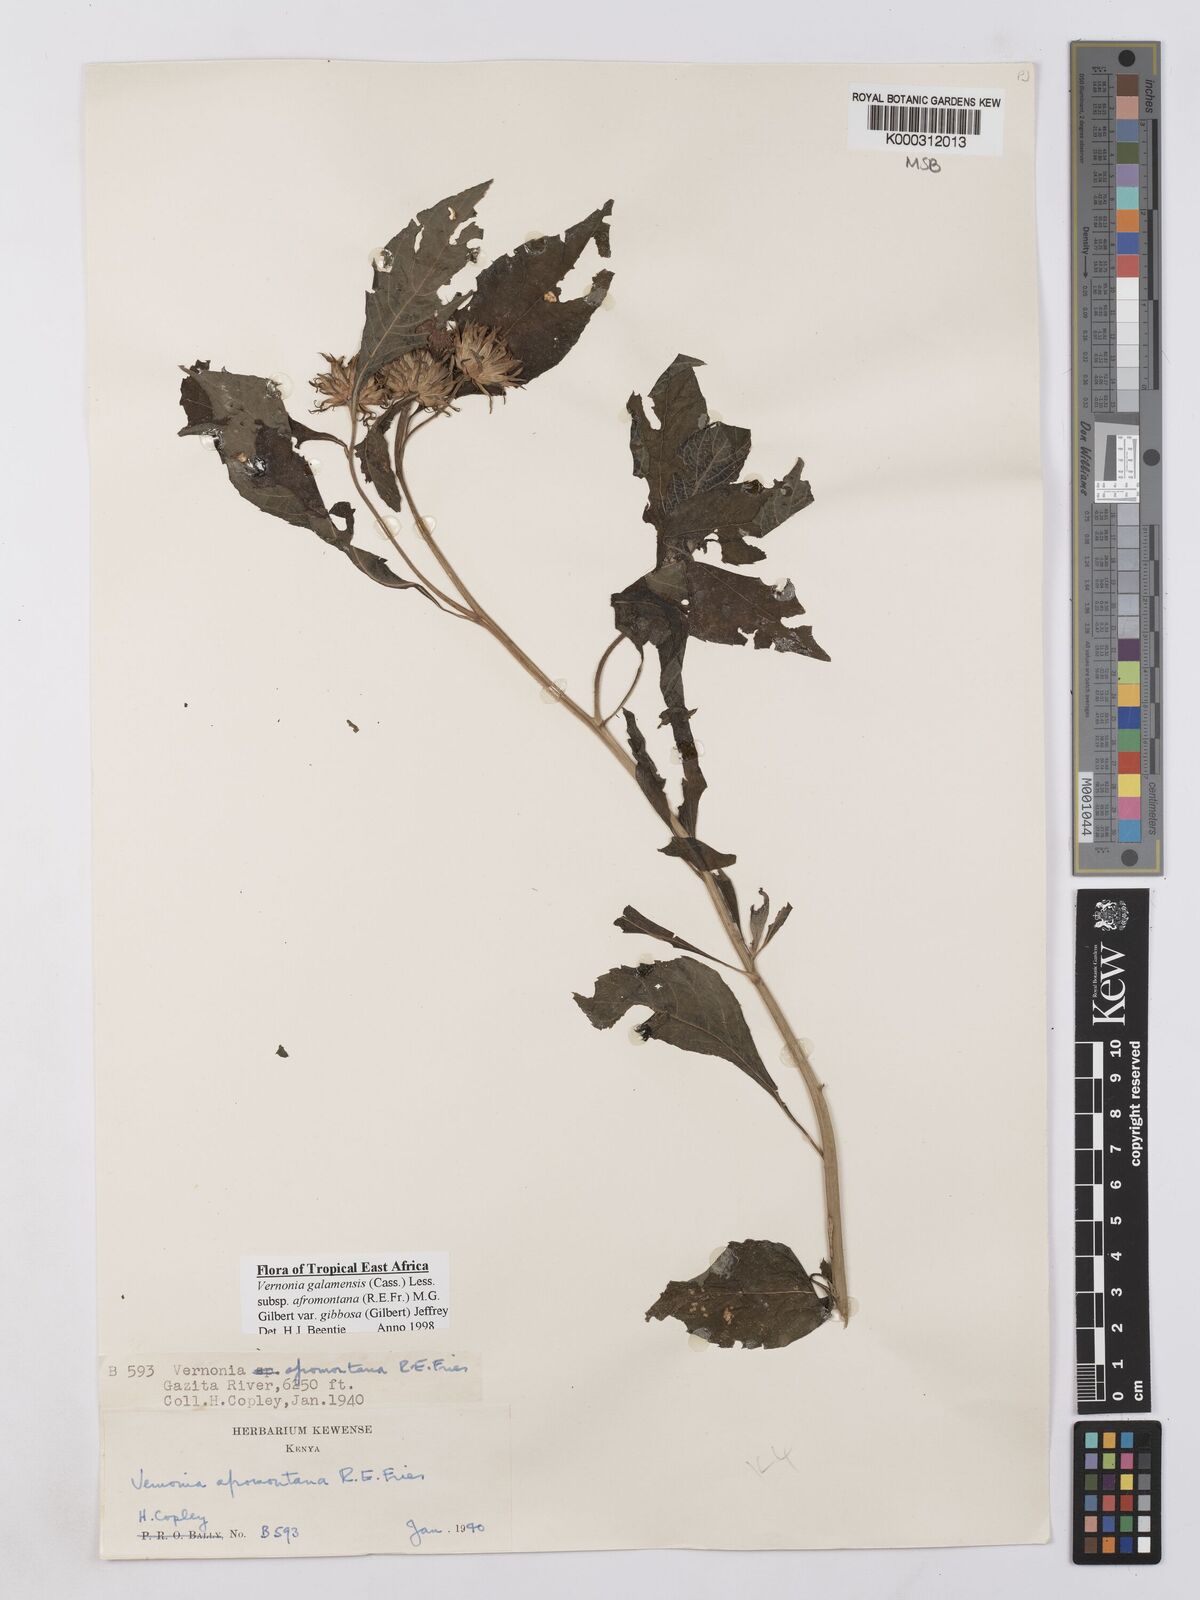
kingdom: Plantae
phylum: Tracheophyta
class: Magnoliopsida
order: Asterales
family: Asteraceae
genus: Vernonia
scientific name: Vernonia galamensis
